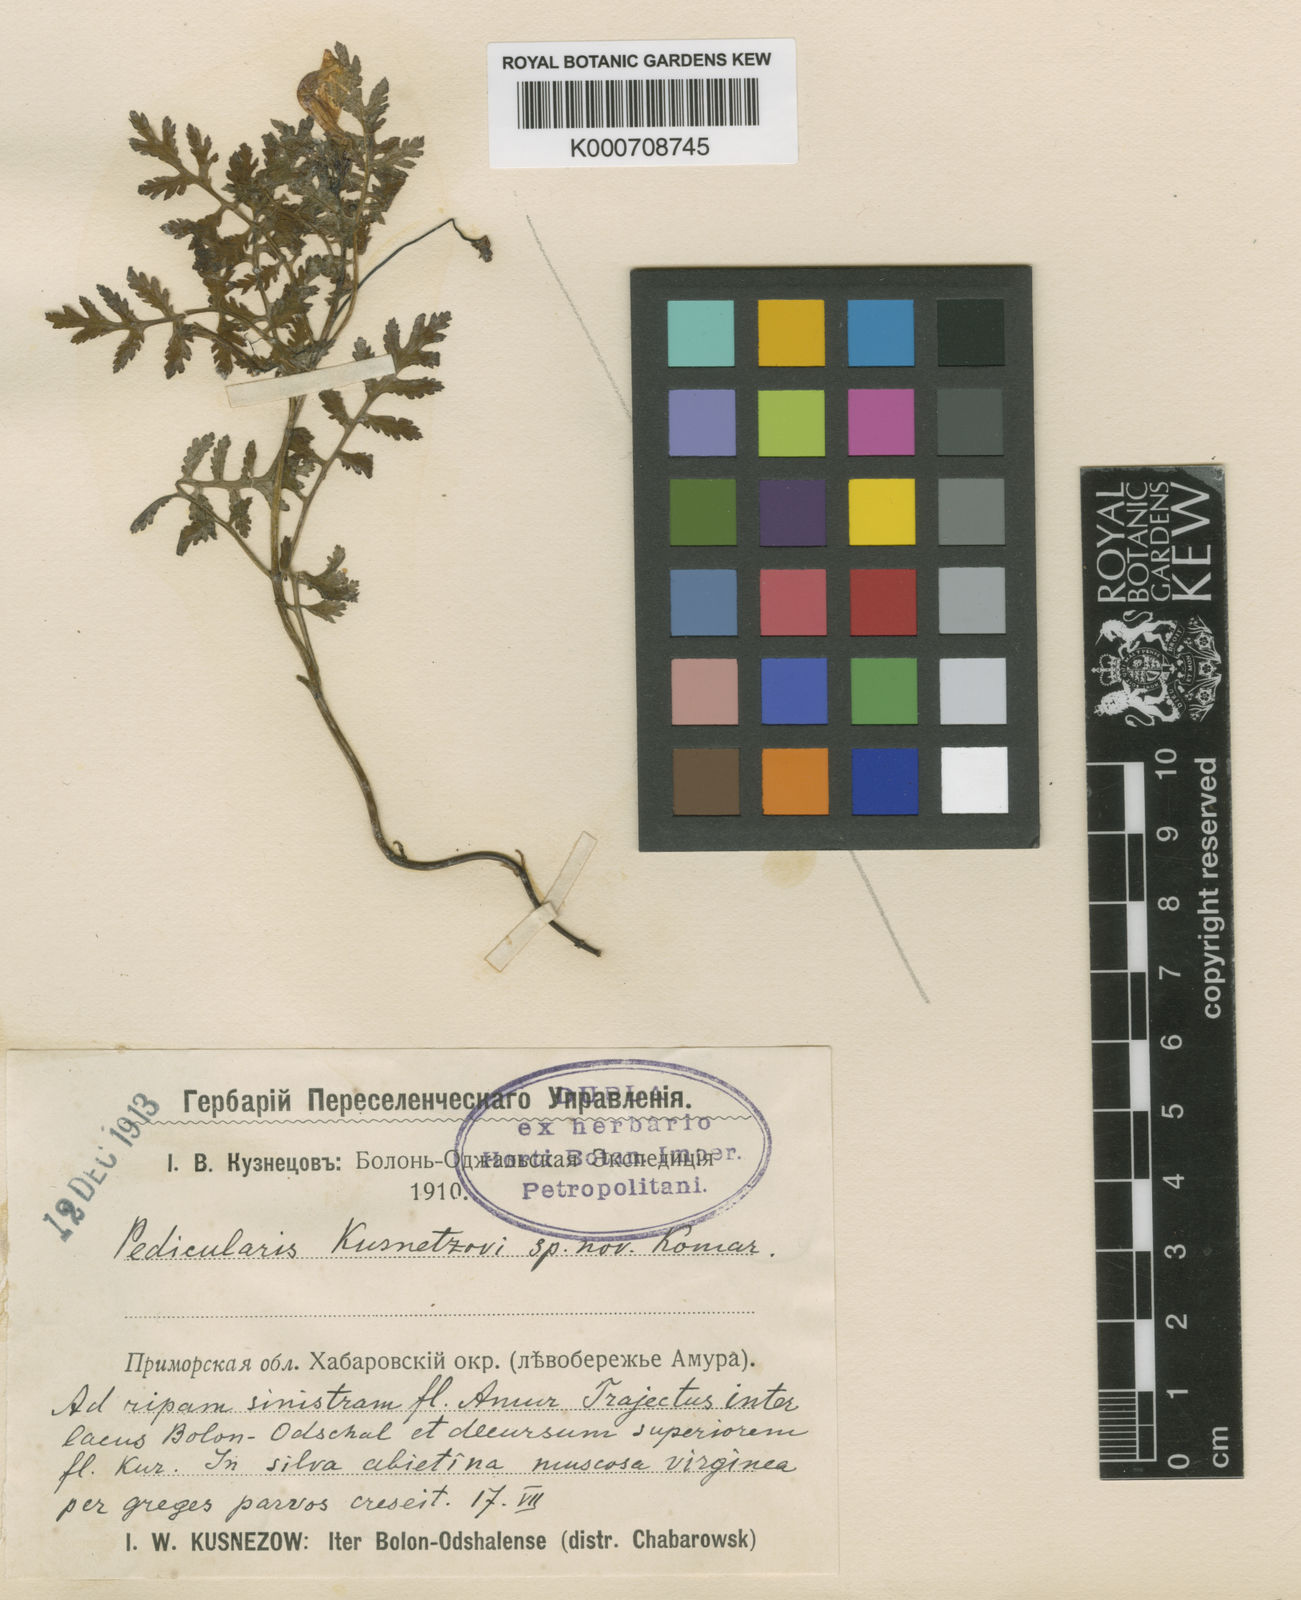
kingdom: Plantae
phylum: Tracheophyta
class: Magnoliopsida
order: Lamiales
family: Orobanchaceae
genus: Pedicularis
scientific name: Pedicularis kusnetzovii
